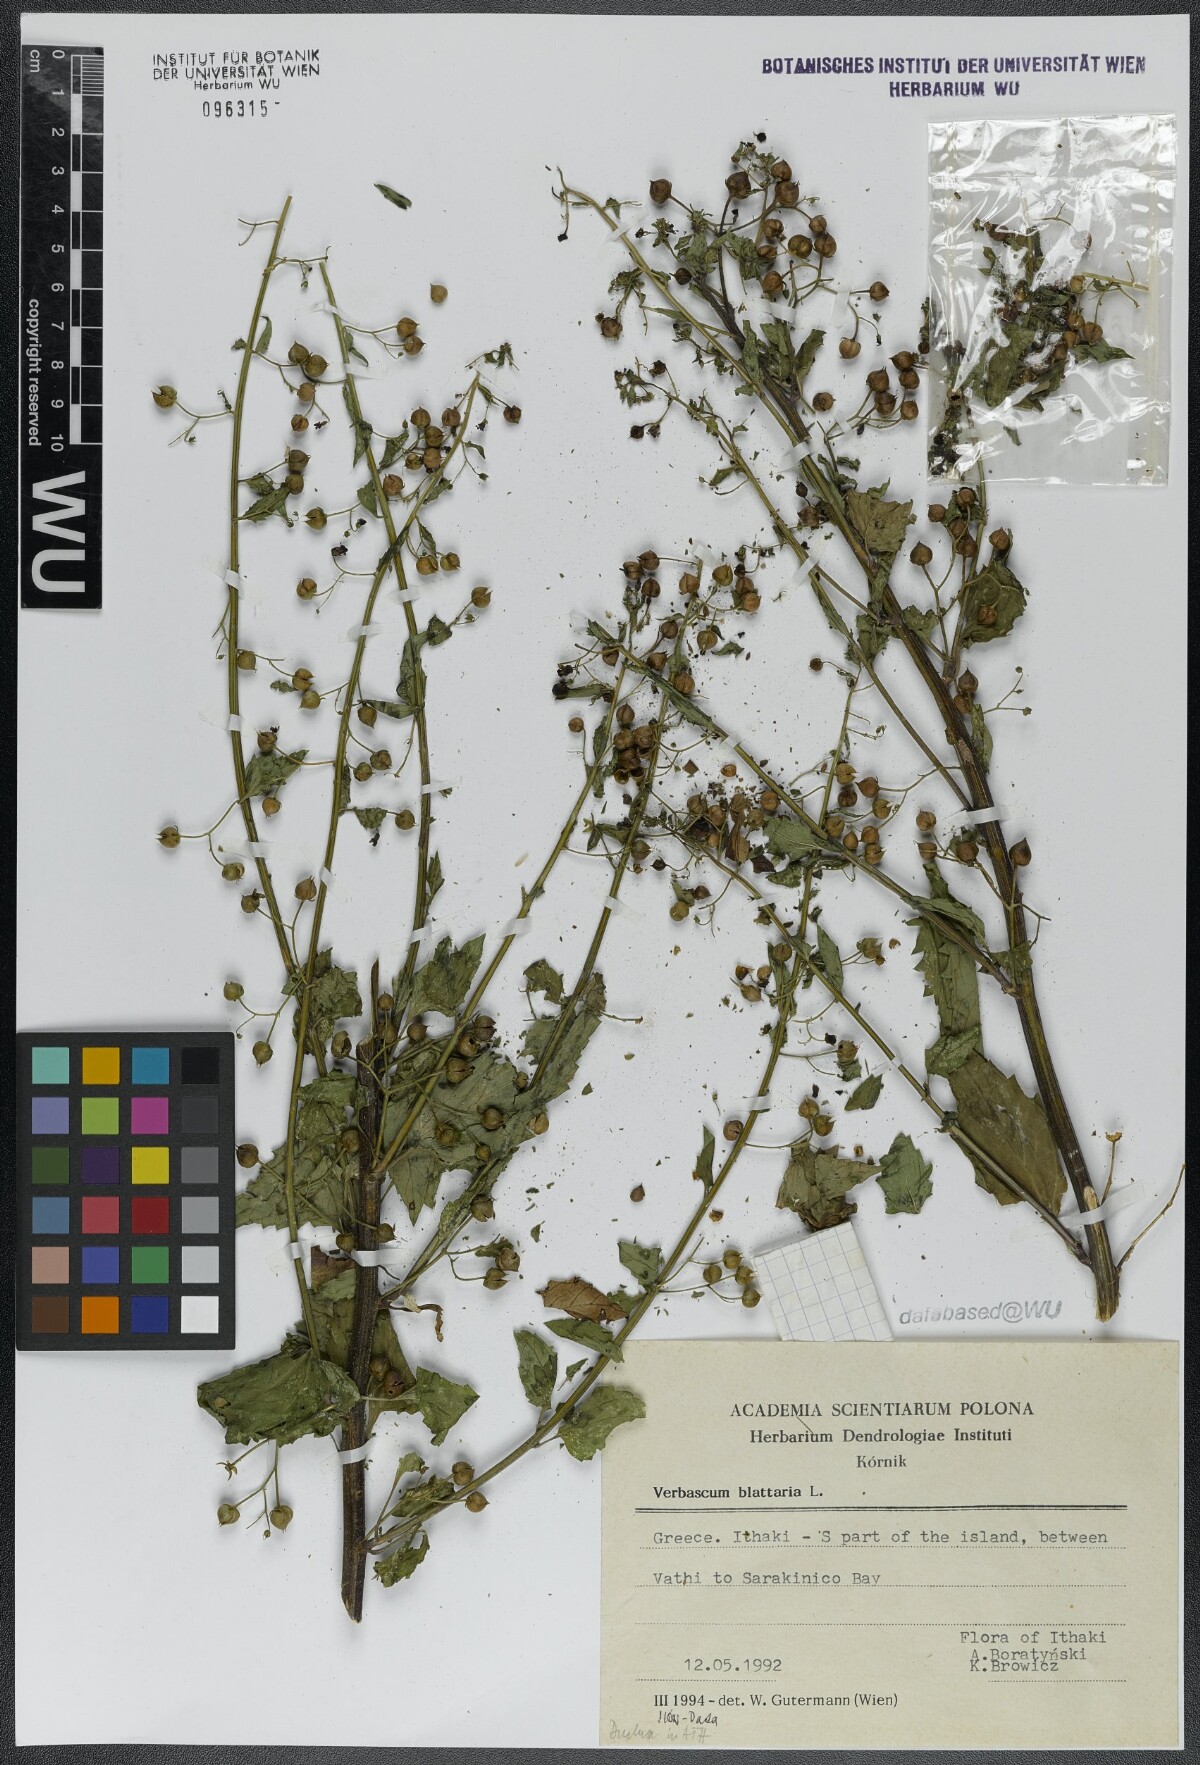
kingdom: Plantae
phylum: Tracheophyta
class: Magnoliopsida
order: Lamiales
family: Scrophulariaceae
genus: Verbascum
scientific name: Verbascum blattaria
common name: Moth mullein
